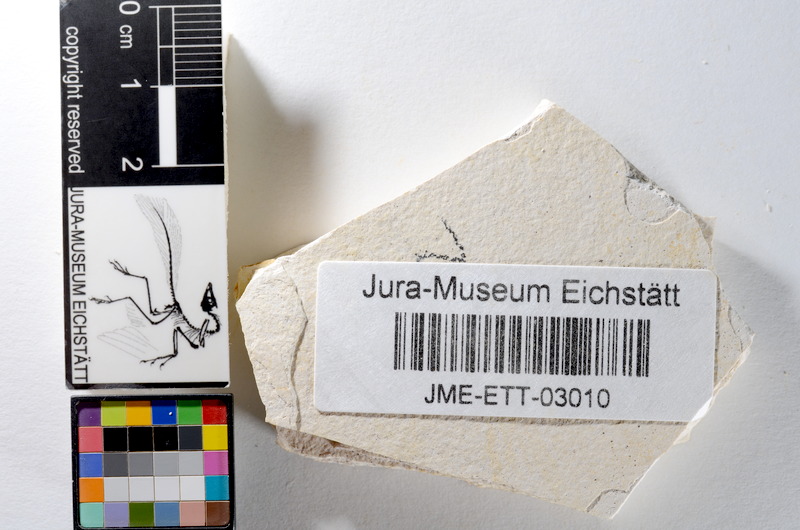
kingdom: Animalia
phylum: Chordata
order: Salmoniformes
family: Orthogonikleithridae
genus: Orthogonikleithrus
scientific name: Orthogonikleithrus hoelli
